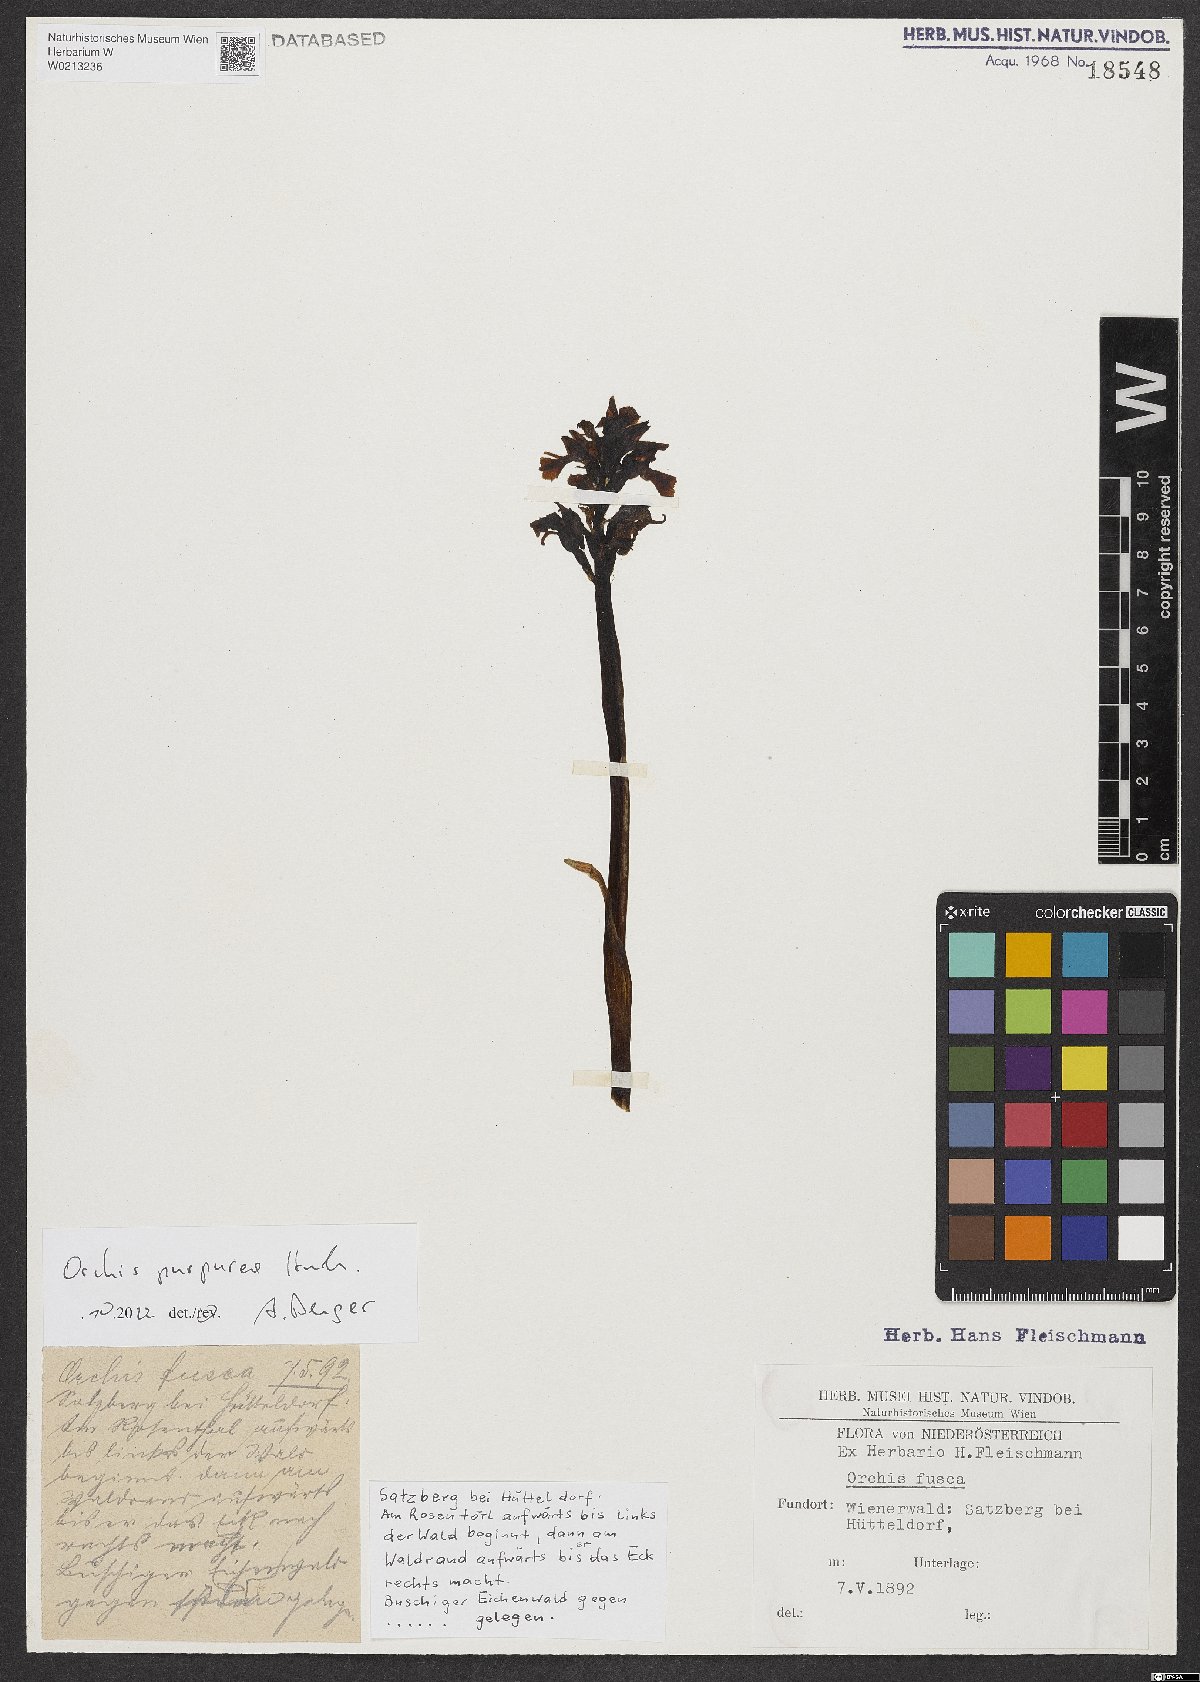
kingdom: Plantae
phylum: Tracheophyta
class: Liliopsida
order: Asparagales
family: Orchidaceae
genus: Orchis
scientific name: Orchis purpurea
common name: Lady orchid
